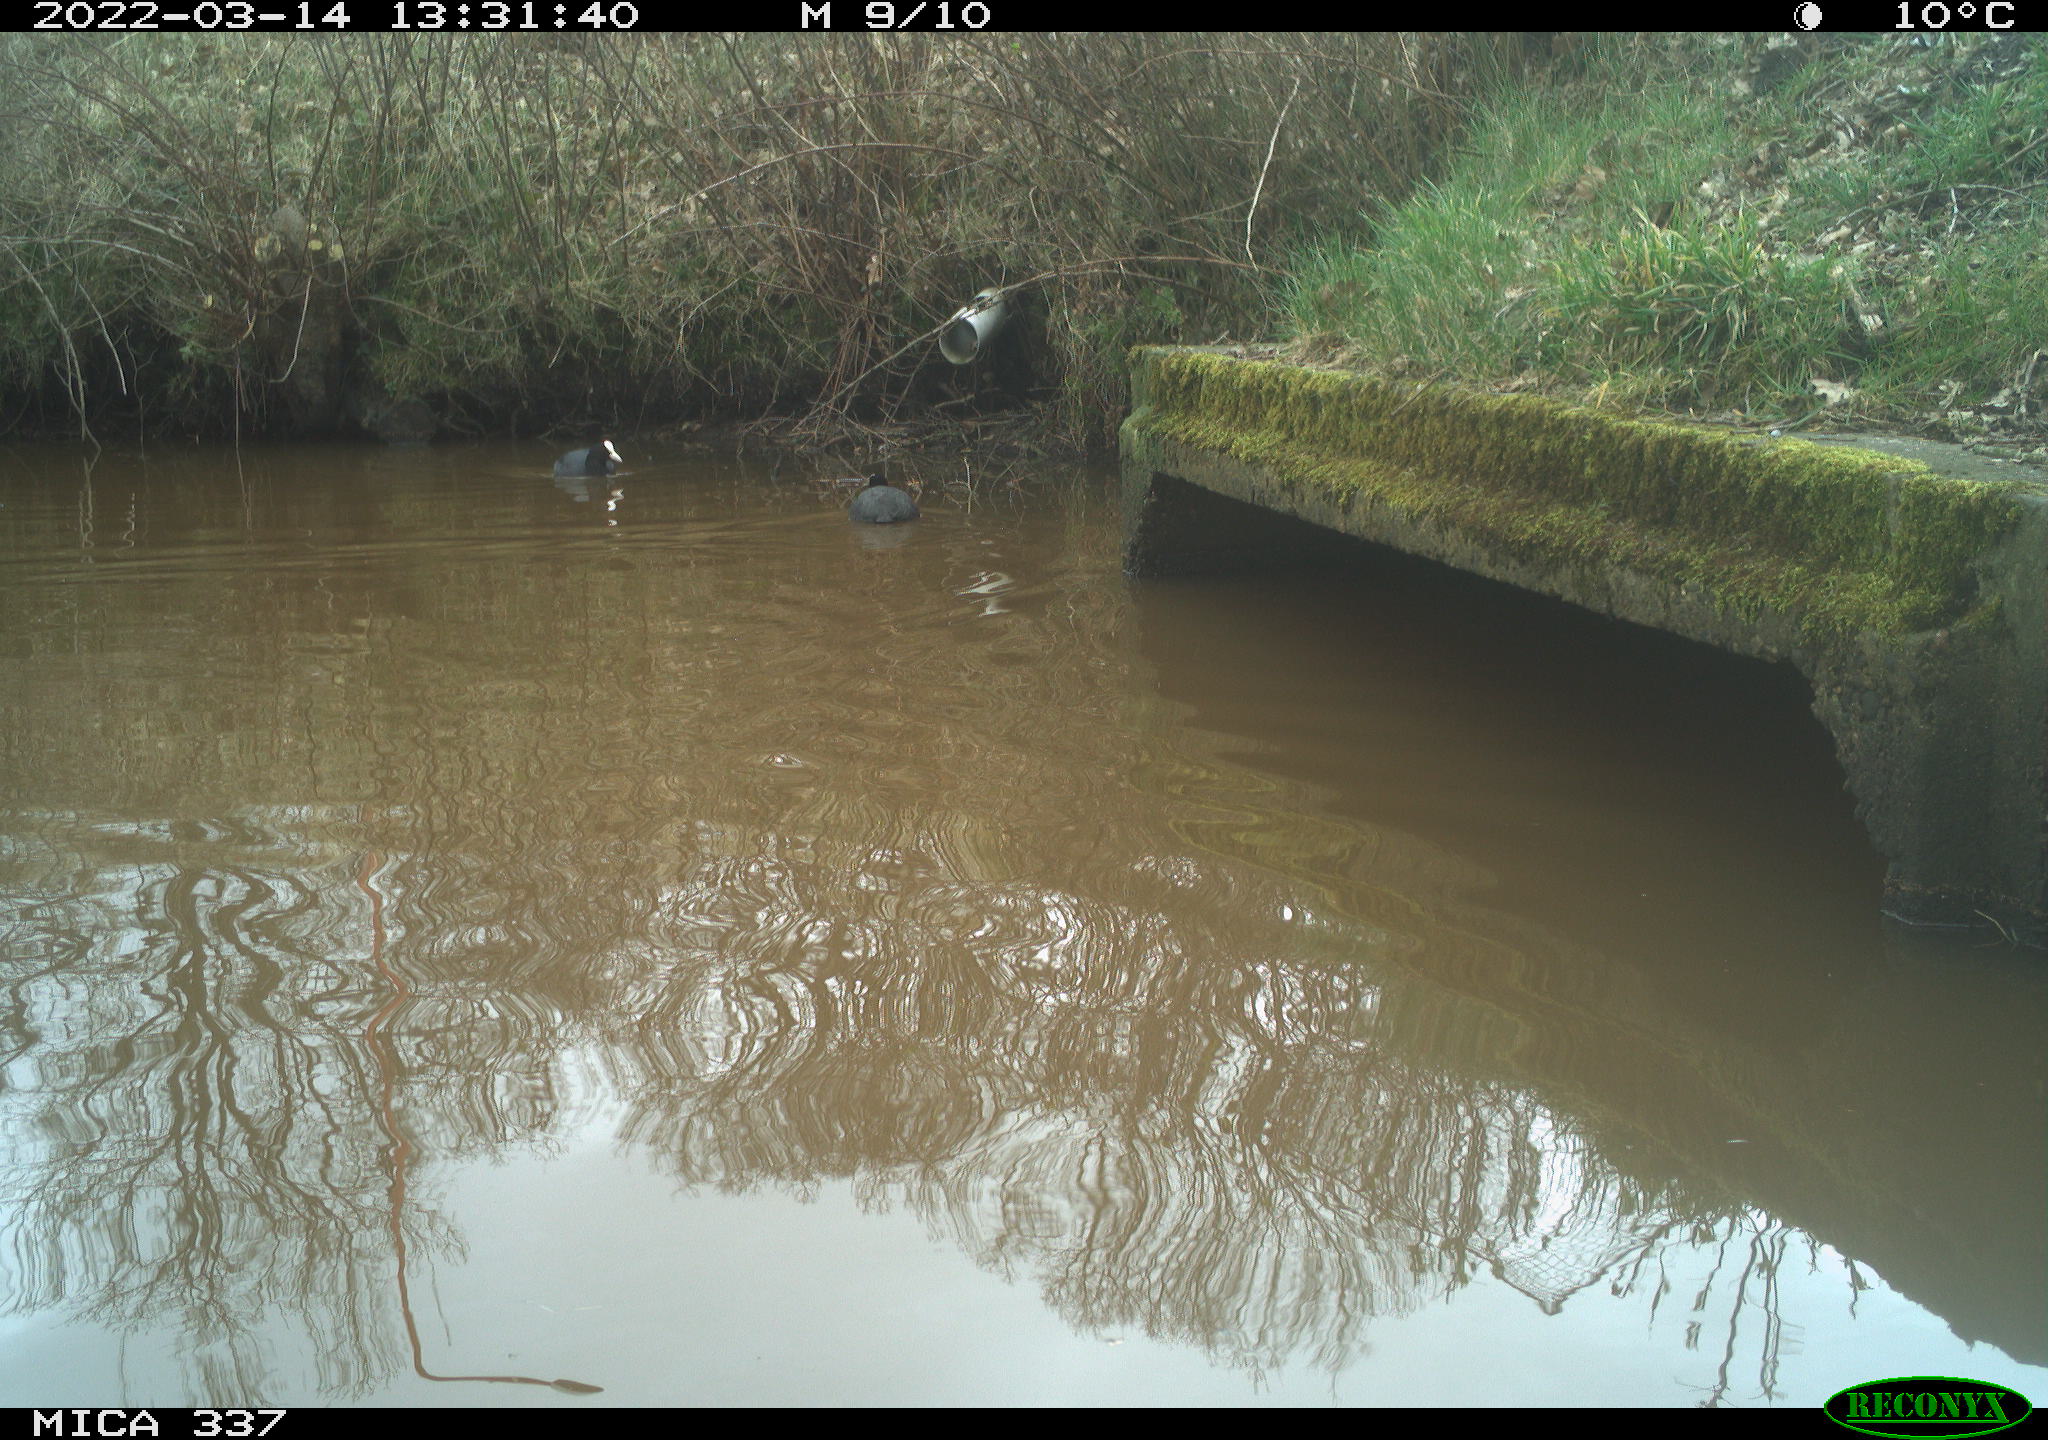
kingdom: Animalia
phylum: Chordata
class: Aves
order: Gruiformes
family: Rallidae
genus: Fulica
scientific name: Fulica atra
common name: Eurasian coot
